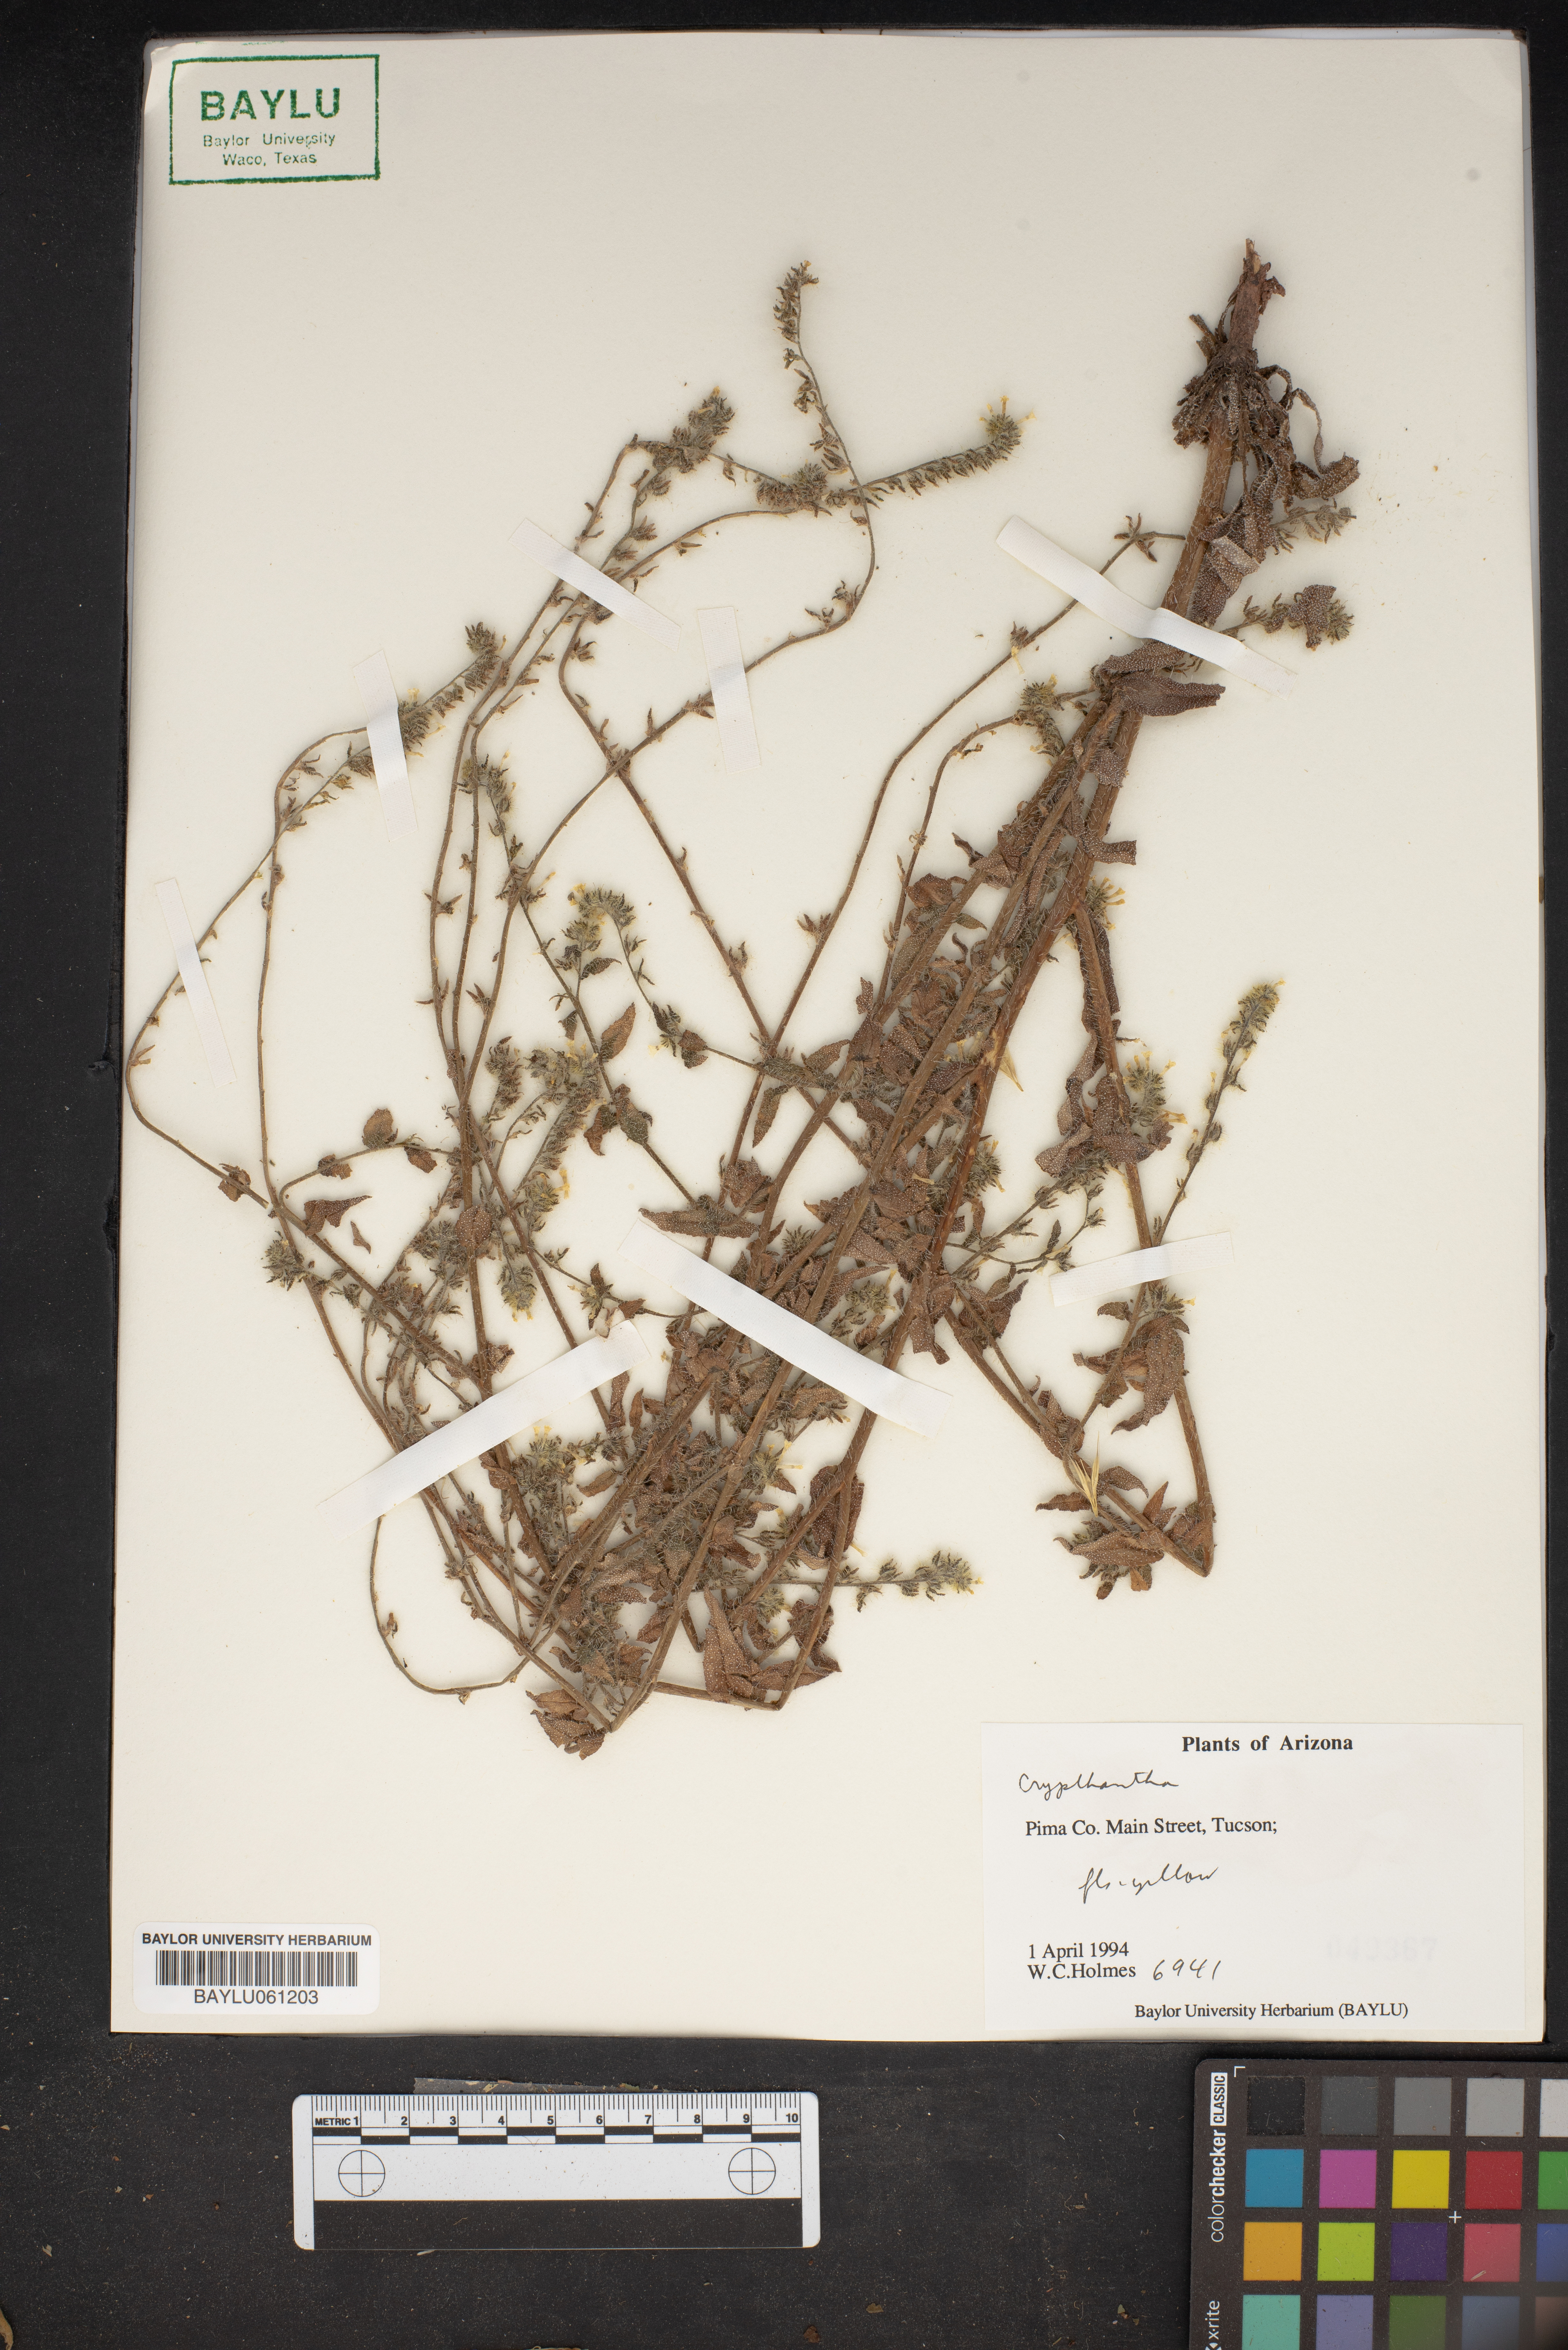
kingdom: Plantae
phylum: Tracheophyta
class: Magnoliopsida
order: Boraginales
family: Boraginaceae
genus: Cryptantha
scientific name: Cryptantha
